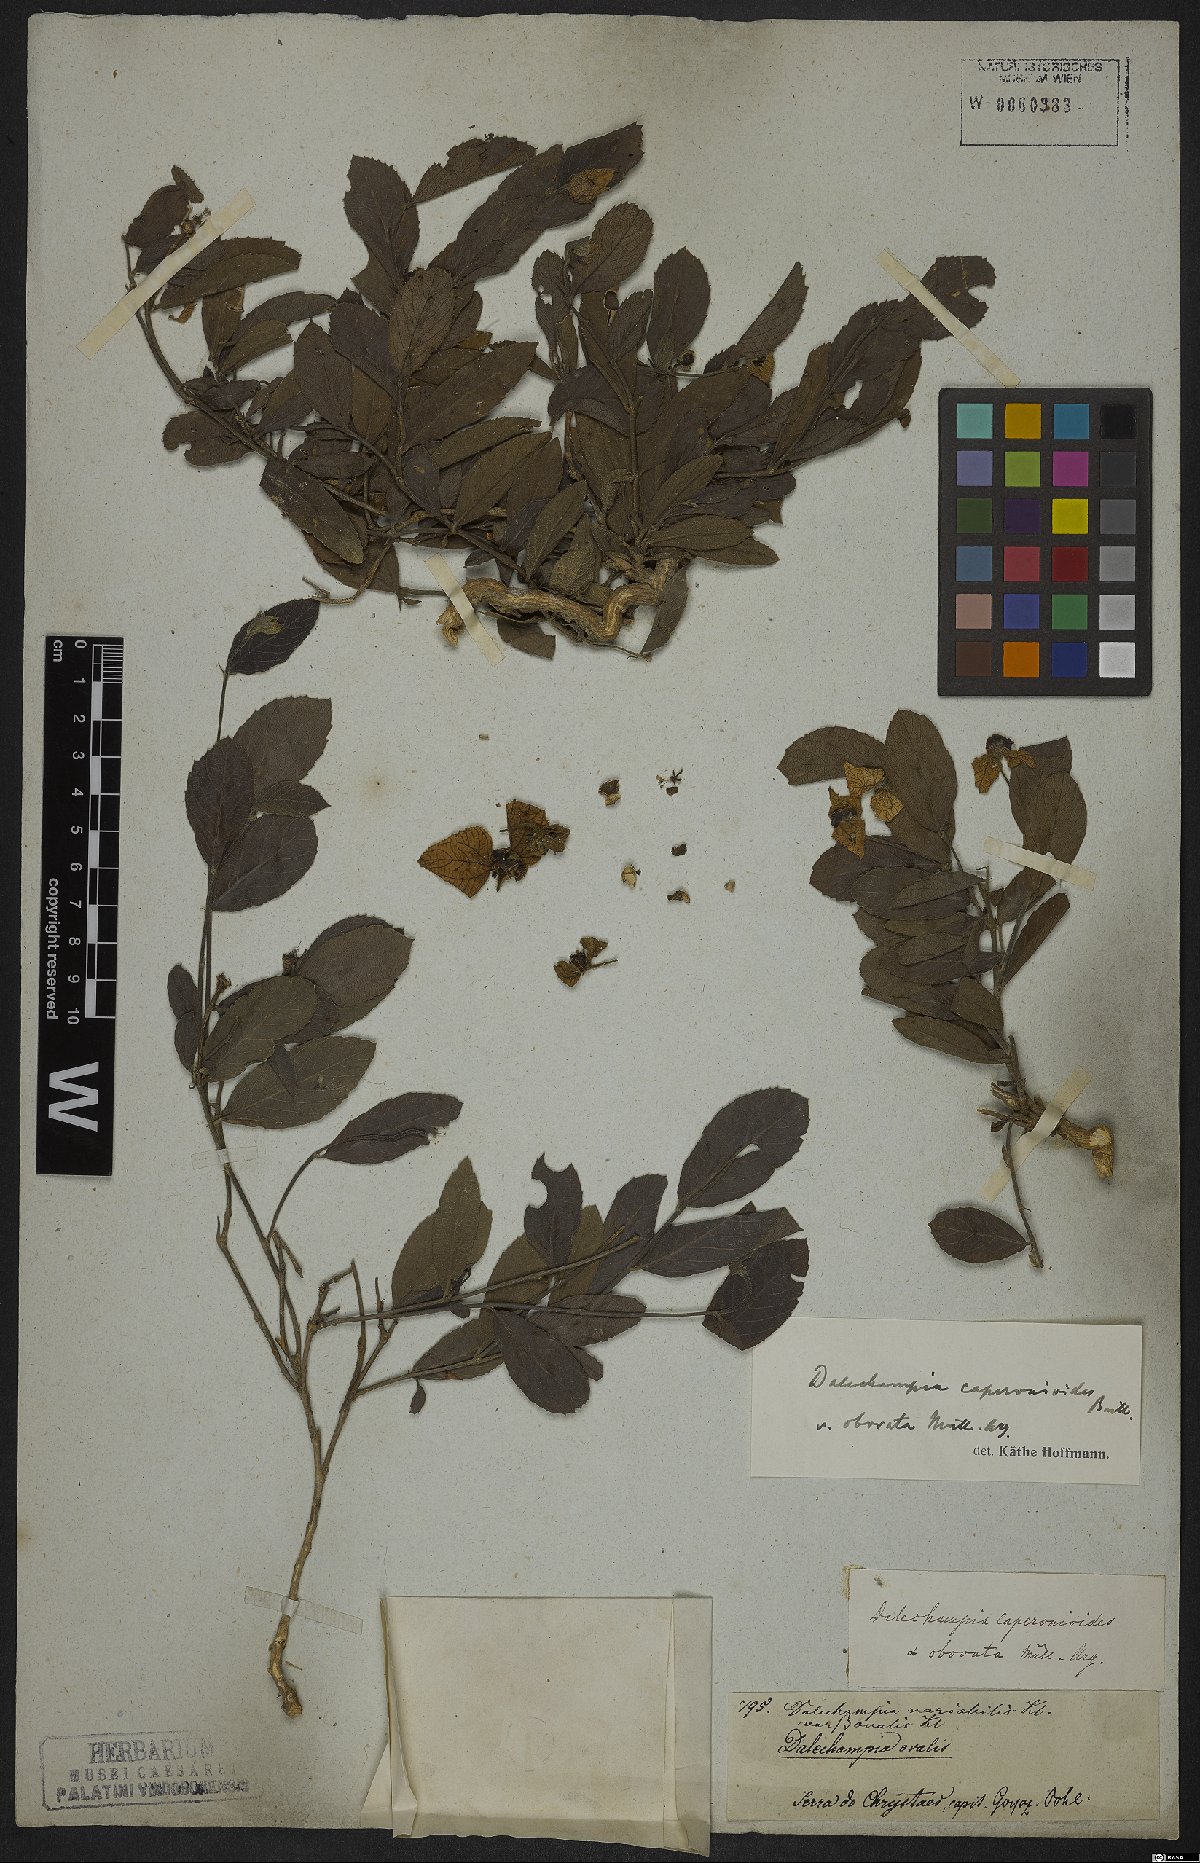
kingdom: Plantae
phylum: Tracheophyta
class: Magnoliopsida
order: Malpighiales
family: Euphorbiaceae
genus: Dalechampia
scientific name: Dalechampia caperonioides
